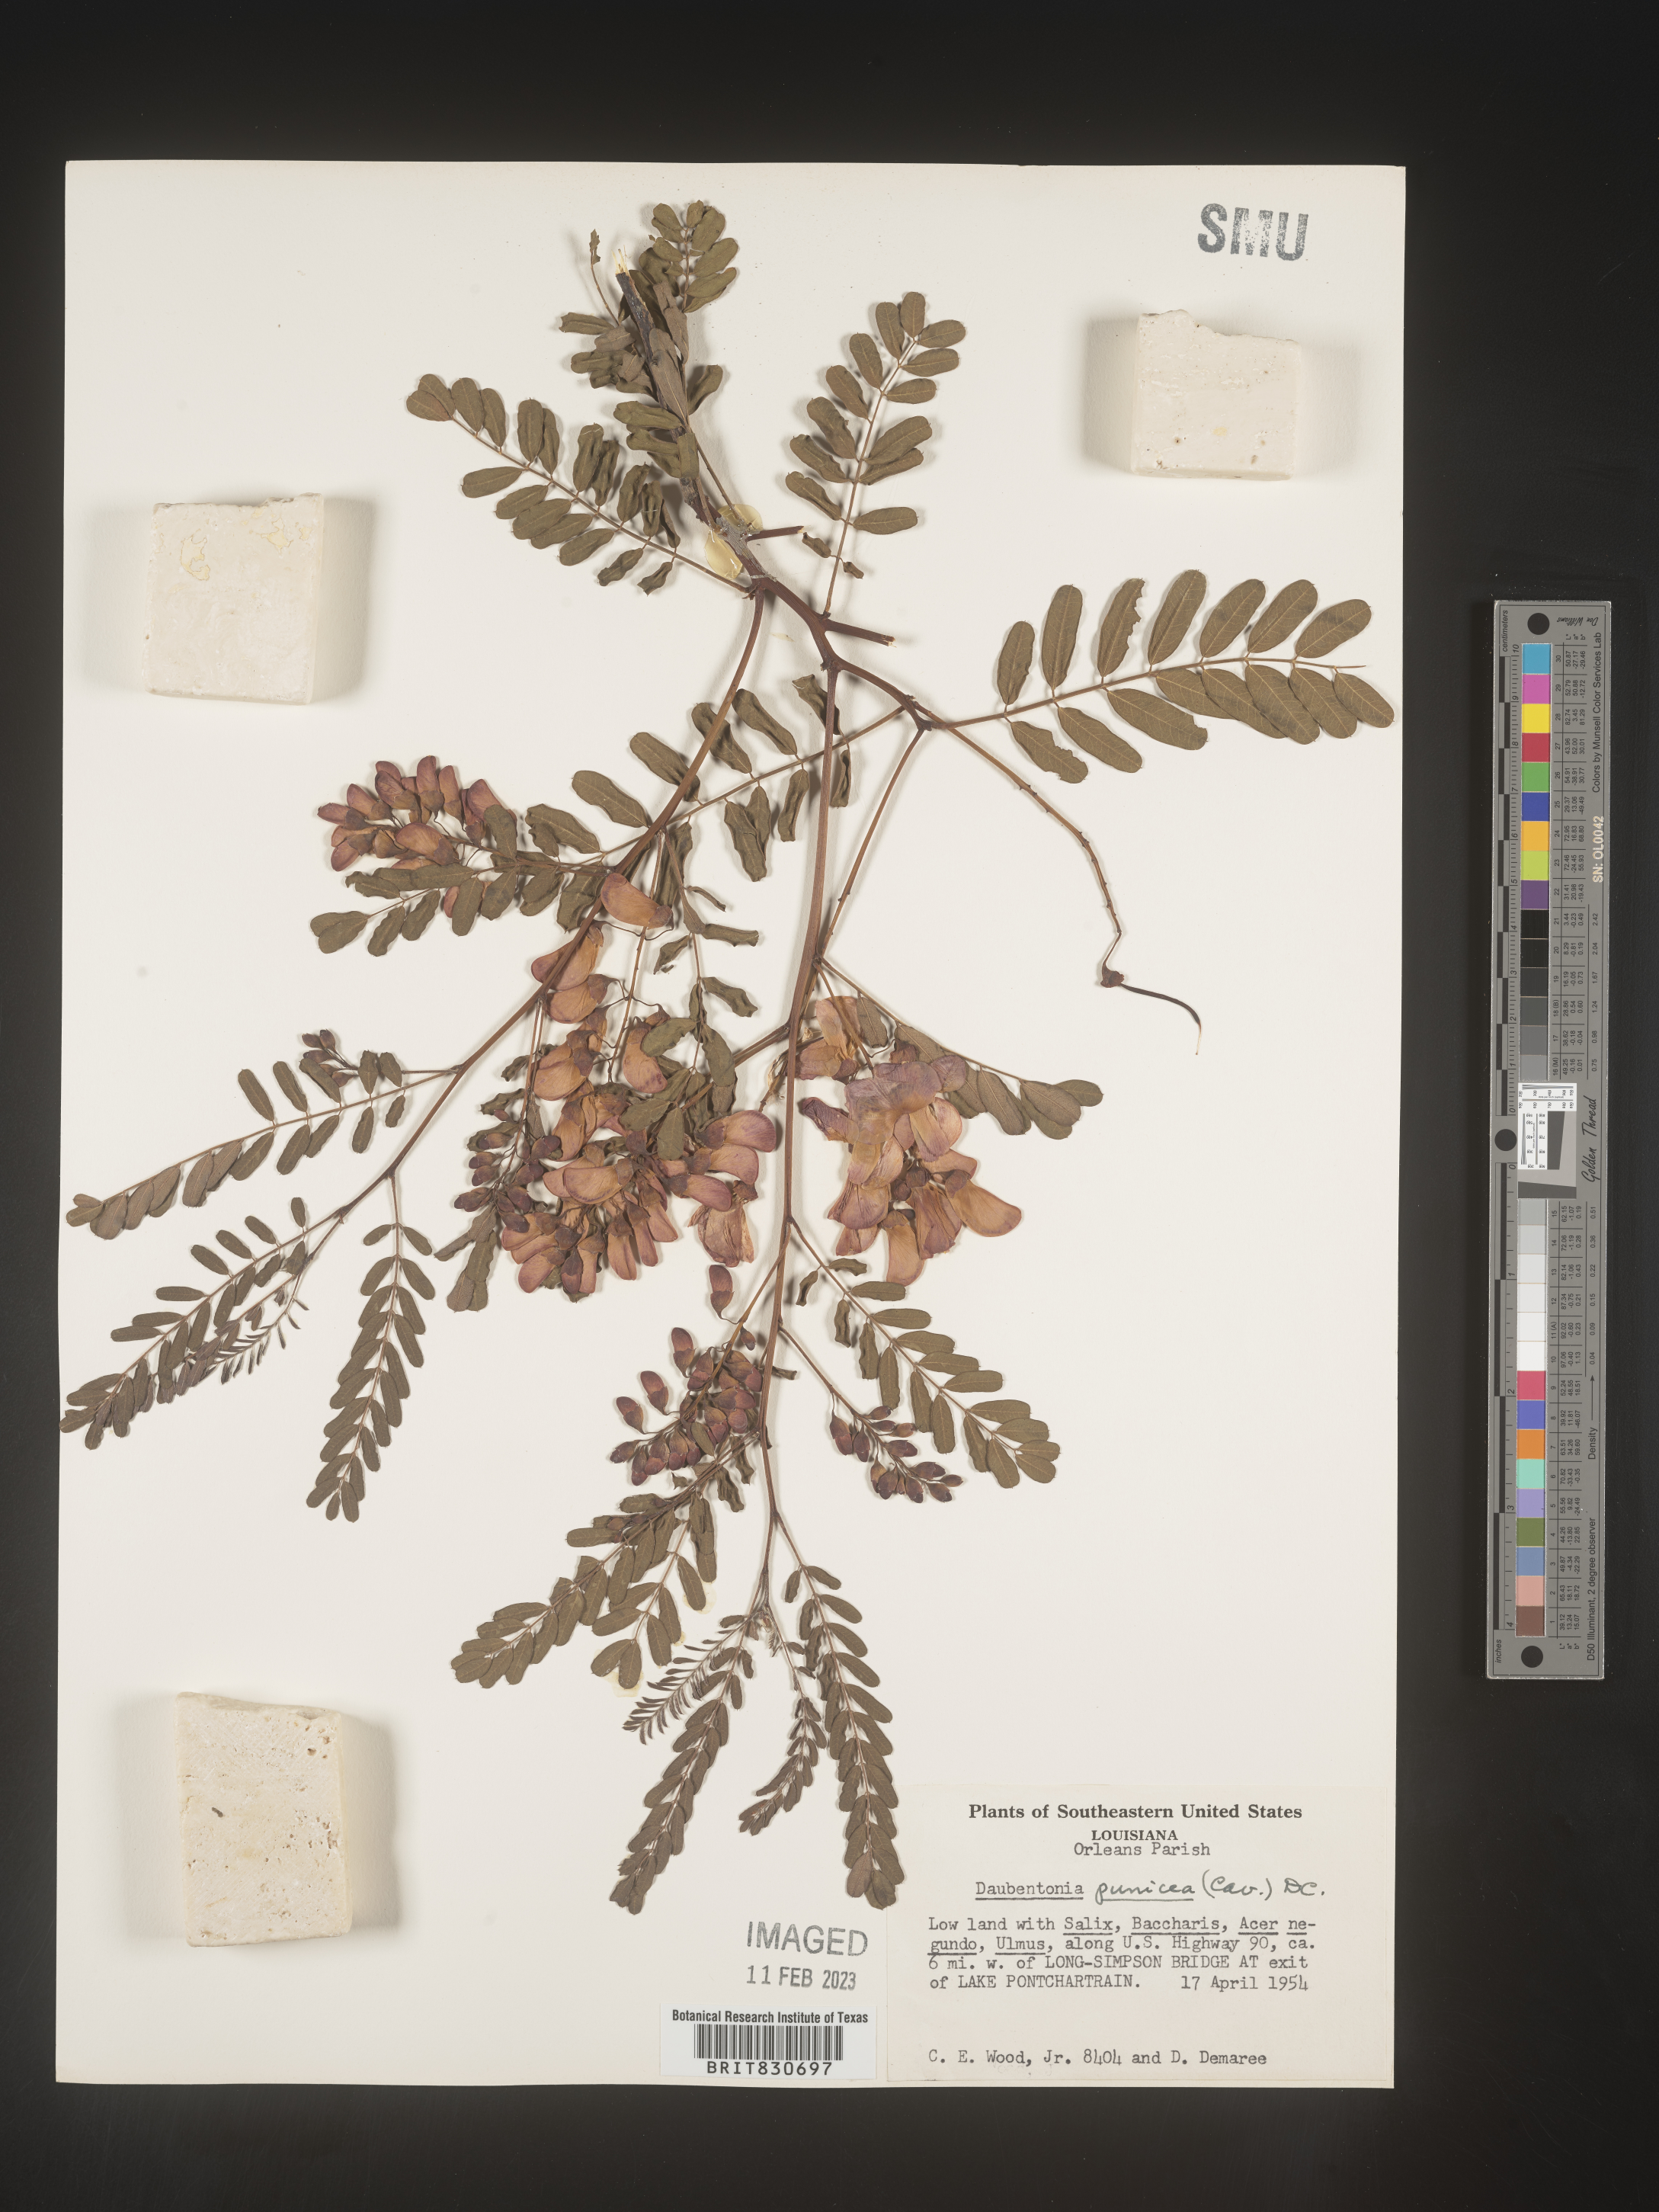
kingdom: Plantae
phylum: Tracheophyta
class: Magnoliopsida
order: Fabales
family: Fabaceae
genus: Sesbania
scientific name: Sesbania punicea
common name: Rattlebox
